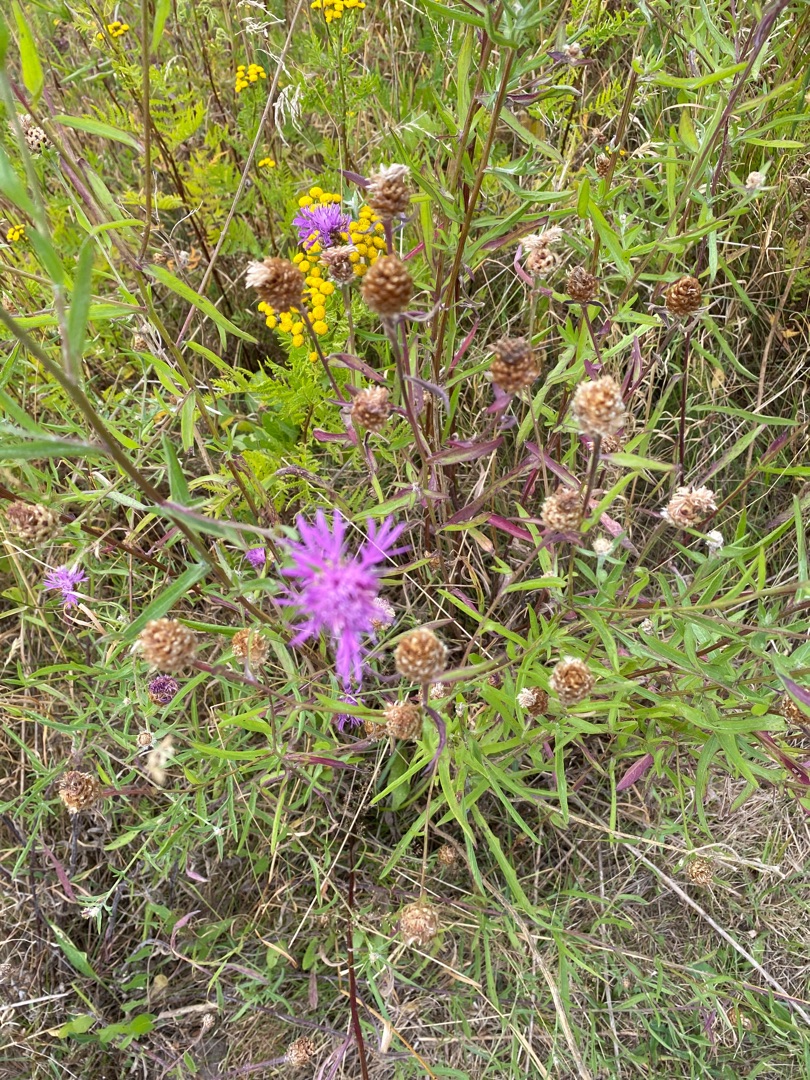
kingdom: Plantae
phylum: Tracheophyta
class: Magnoliopsida
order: Asterales
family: Asteraceae
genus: Centaurea
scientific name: Centaurea jacea
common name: Almindelig knopurt
